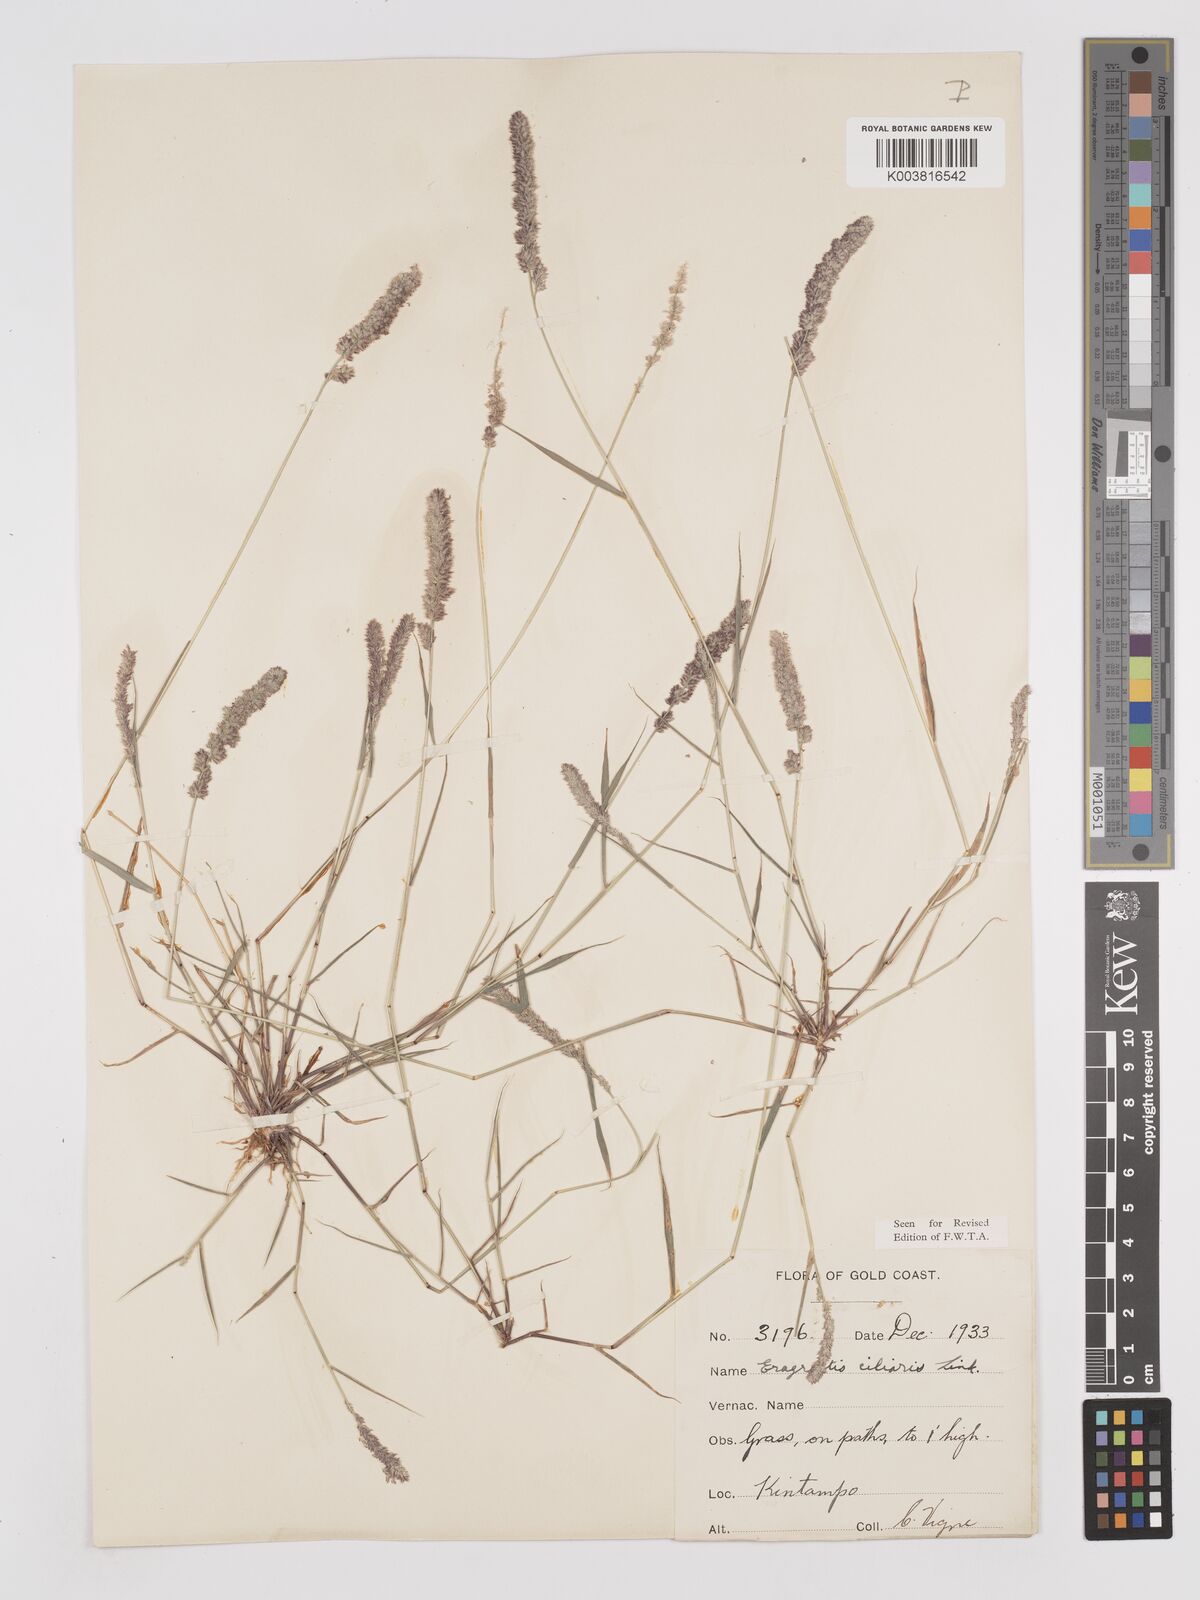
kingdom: Plantae
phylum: Tracheophyta
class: Liliopsida
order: Poales
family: Poaceae
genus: Eragrostis
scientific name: Eragrostis ciliaris
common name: Gophertail lovegrass
